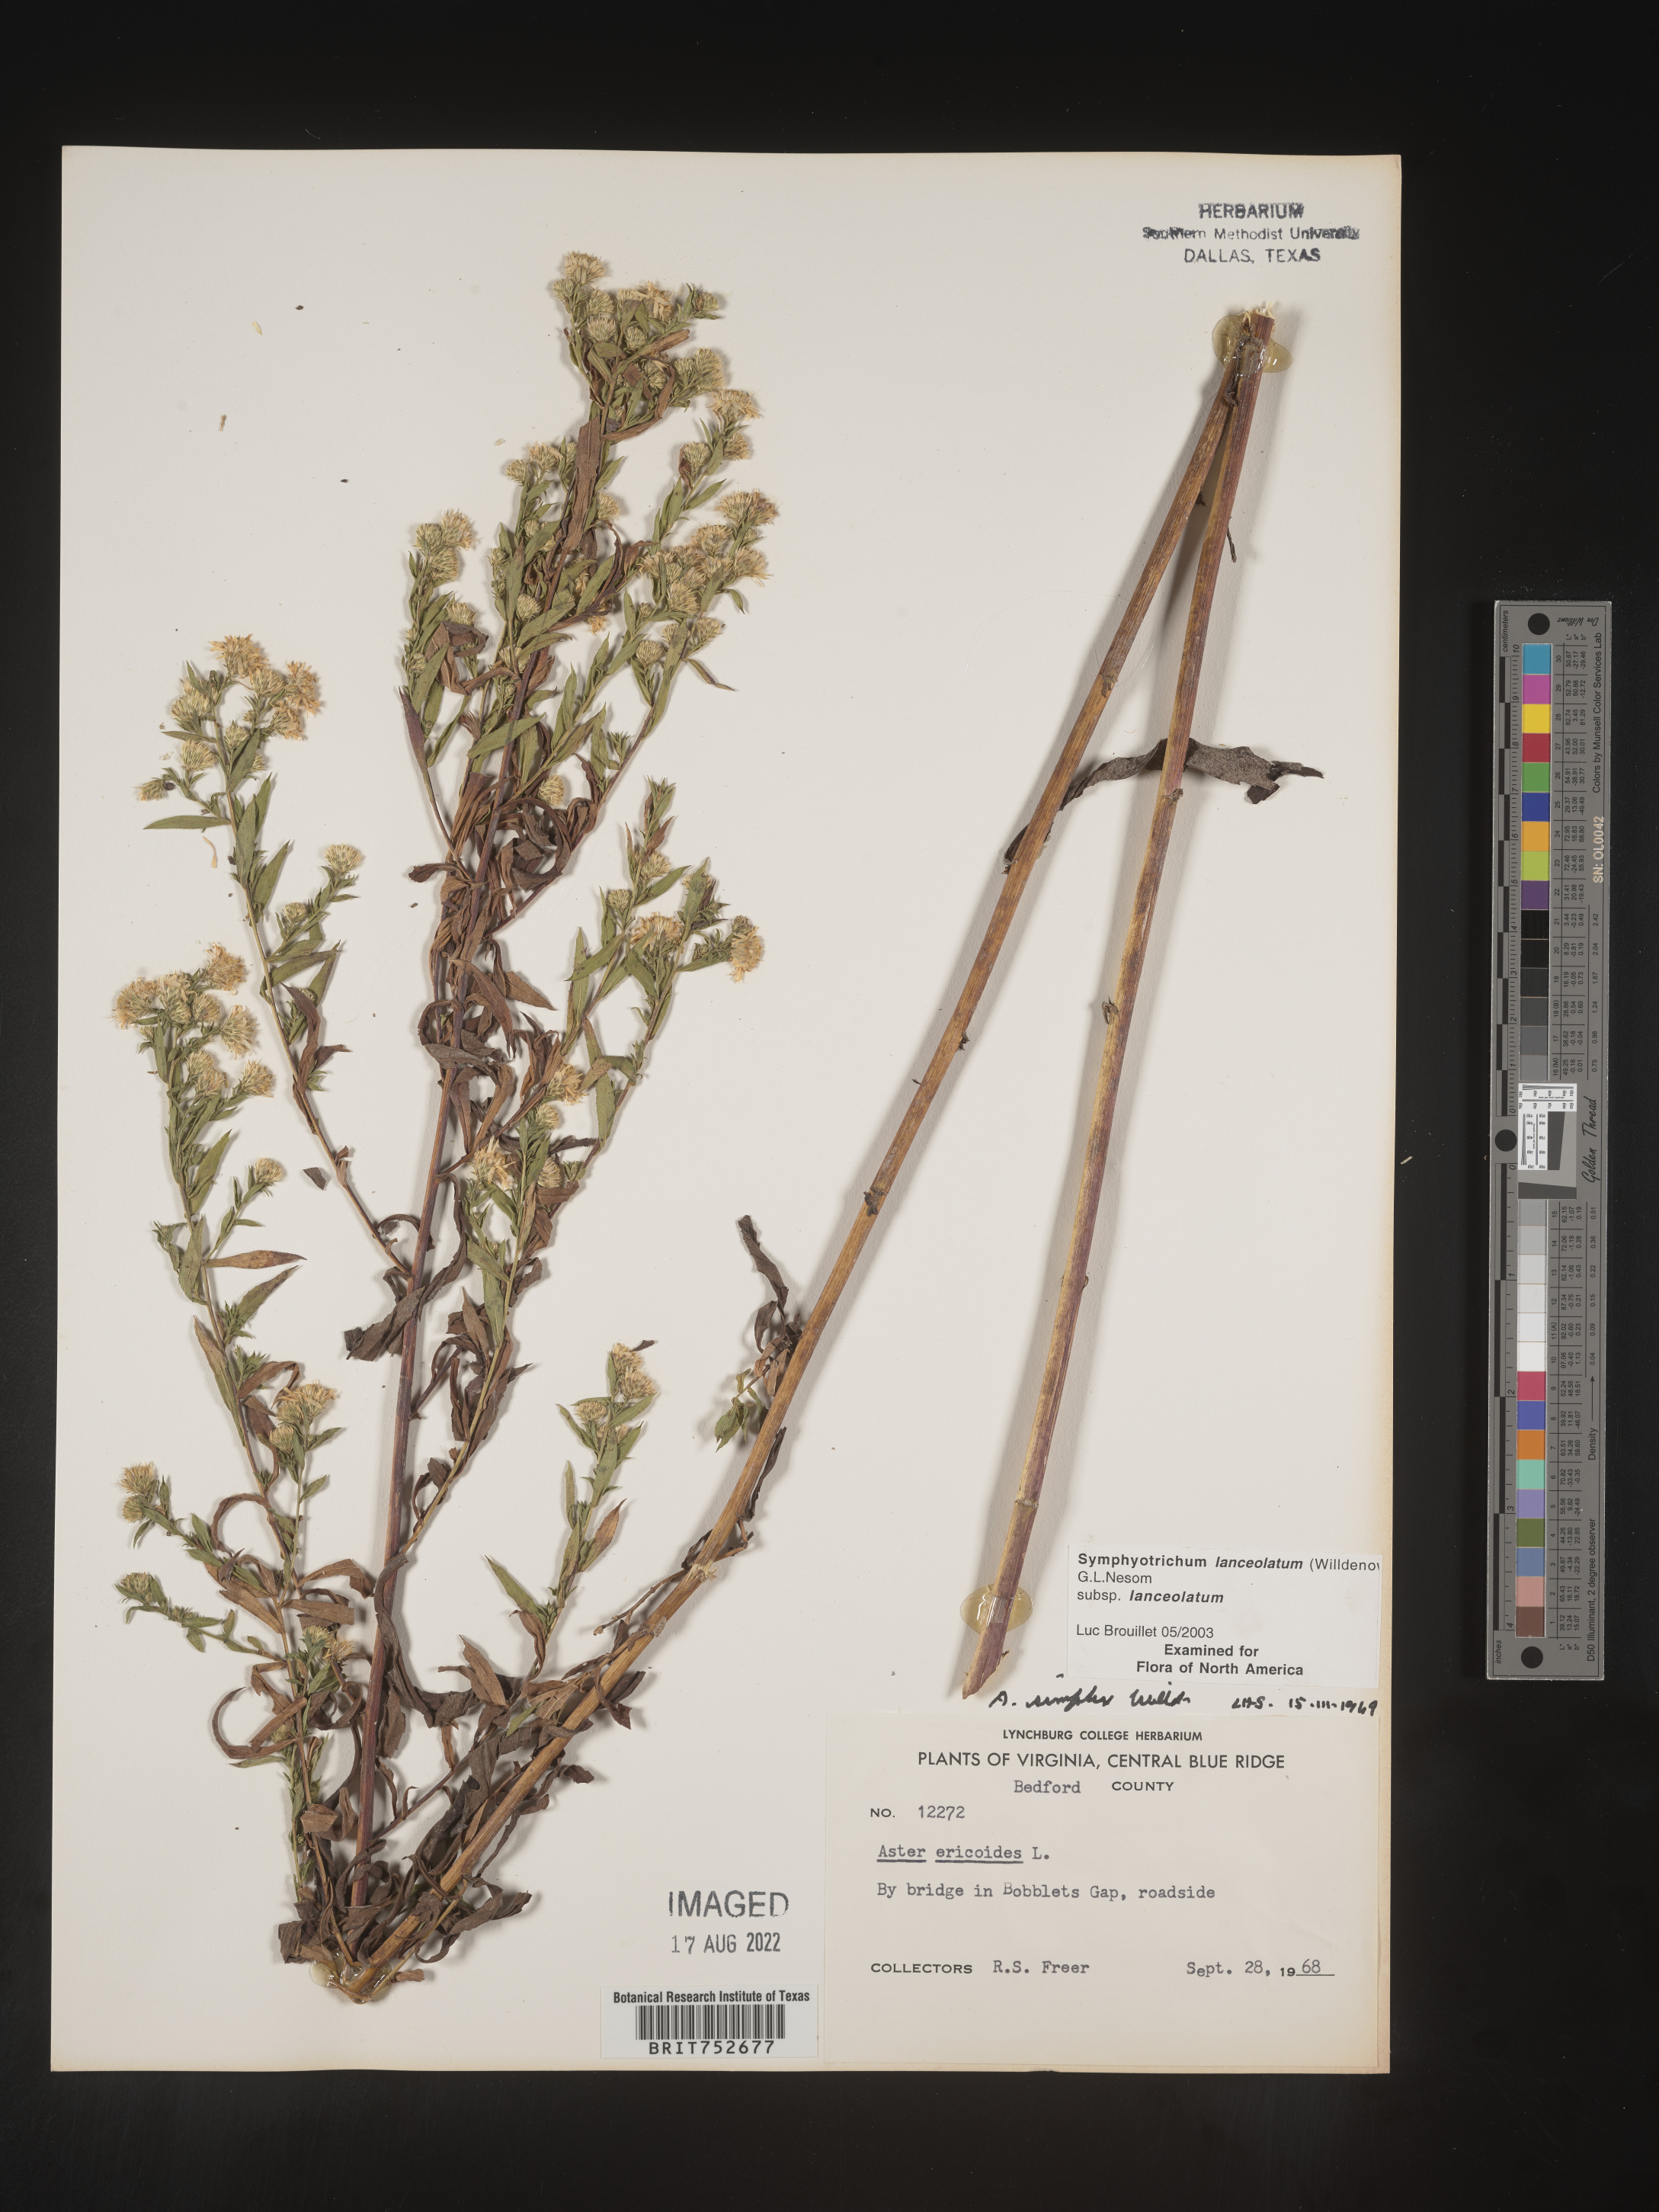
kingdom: Plantae
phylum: Tracheophyta
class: Magnoliopsida
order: Asterales
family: Asteraceae
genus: Symphyotrichum
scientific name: Symphyotrichum lanceolatum
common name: Panicled aster
